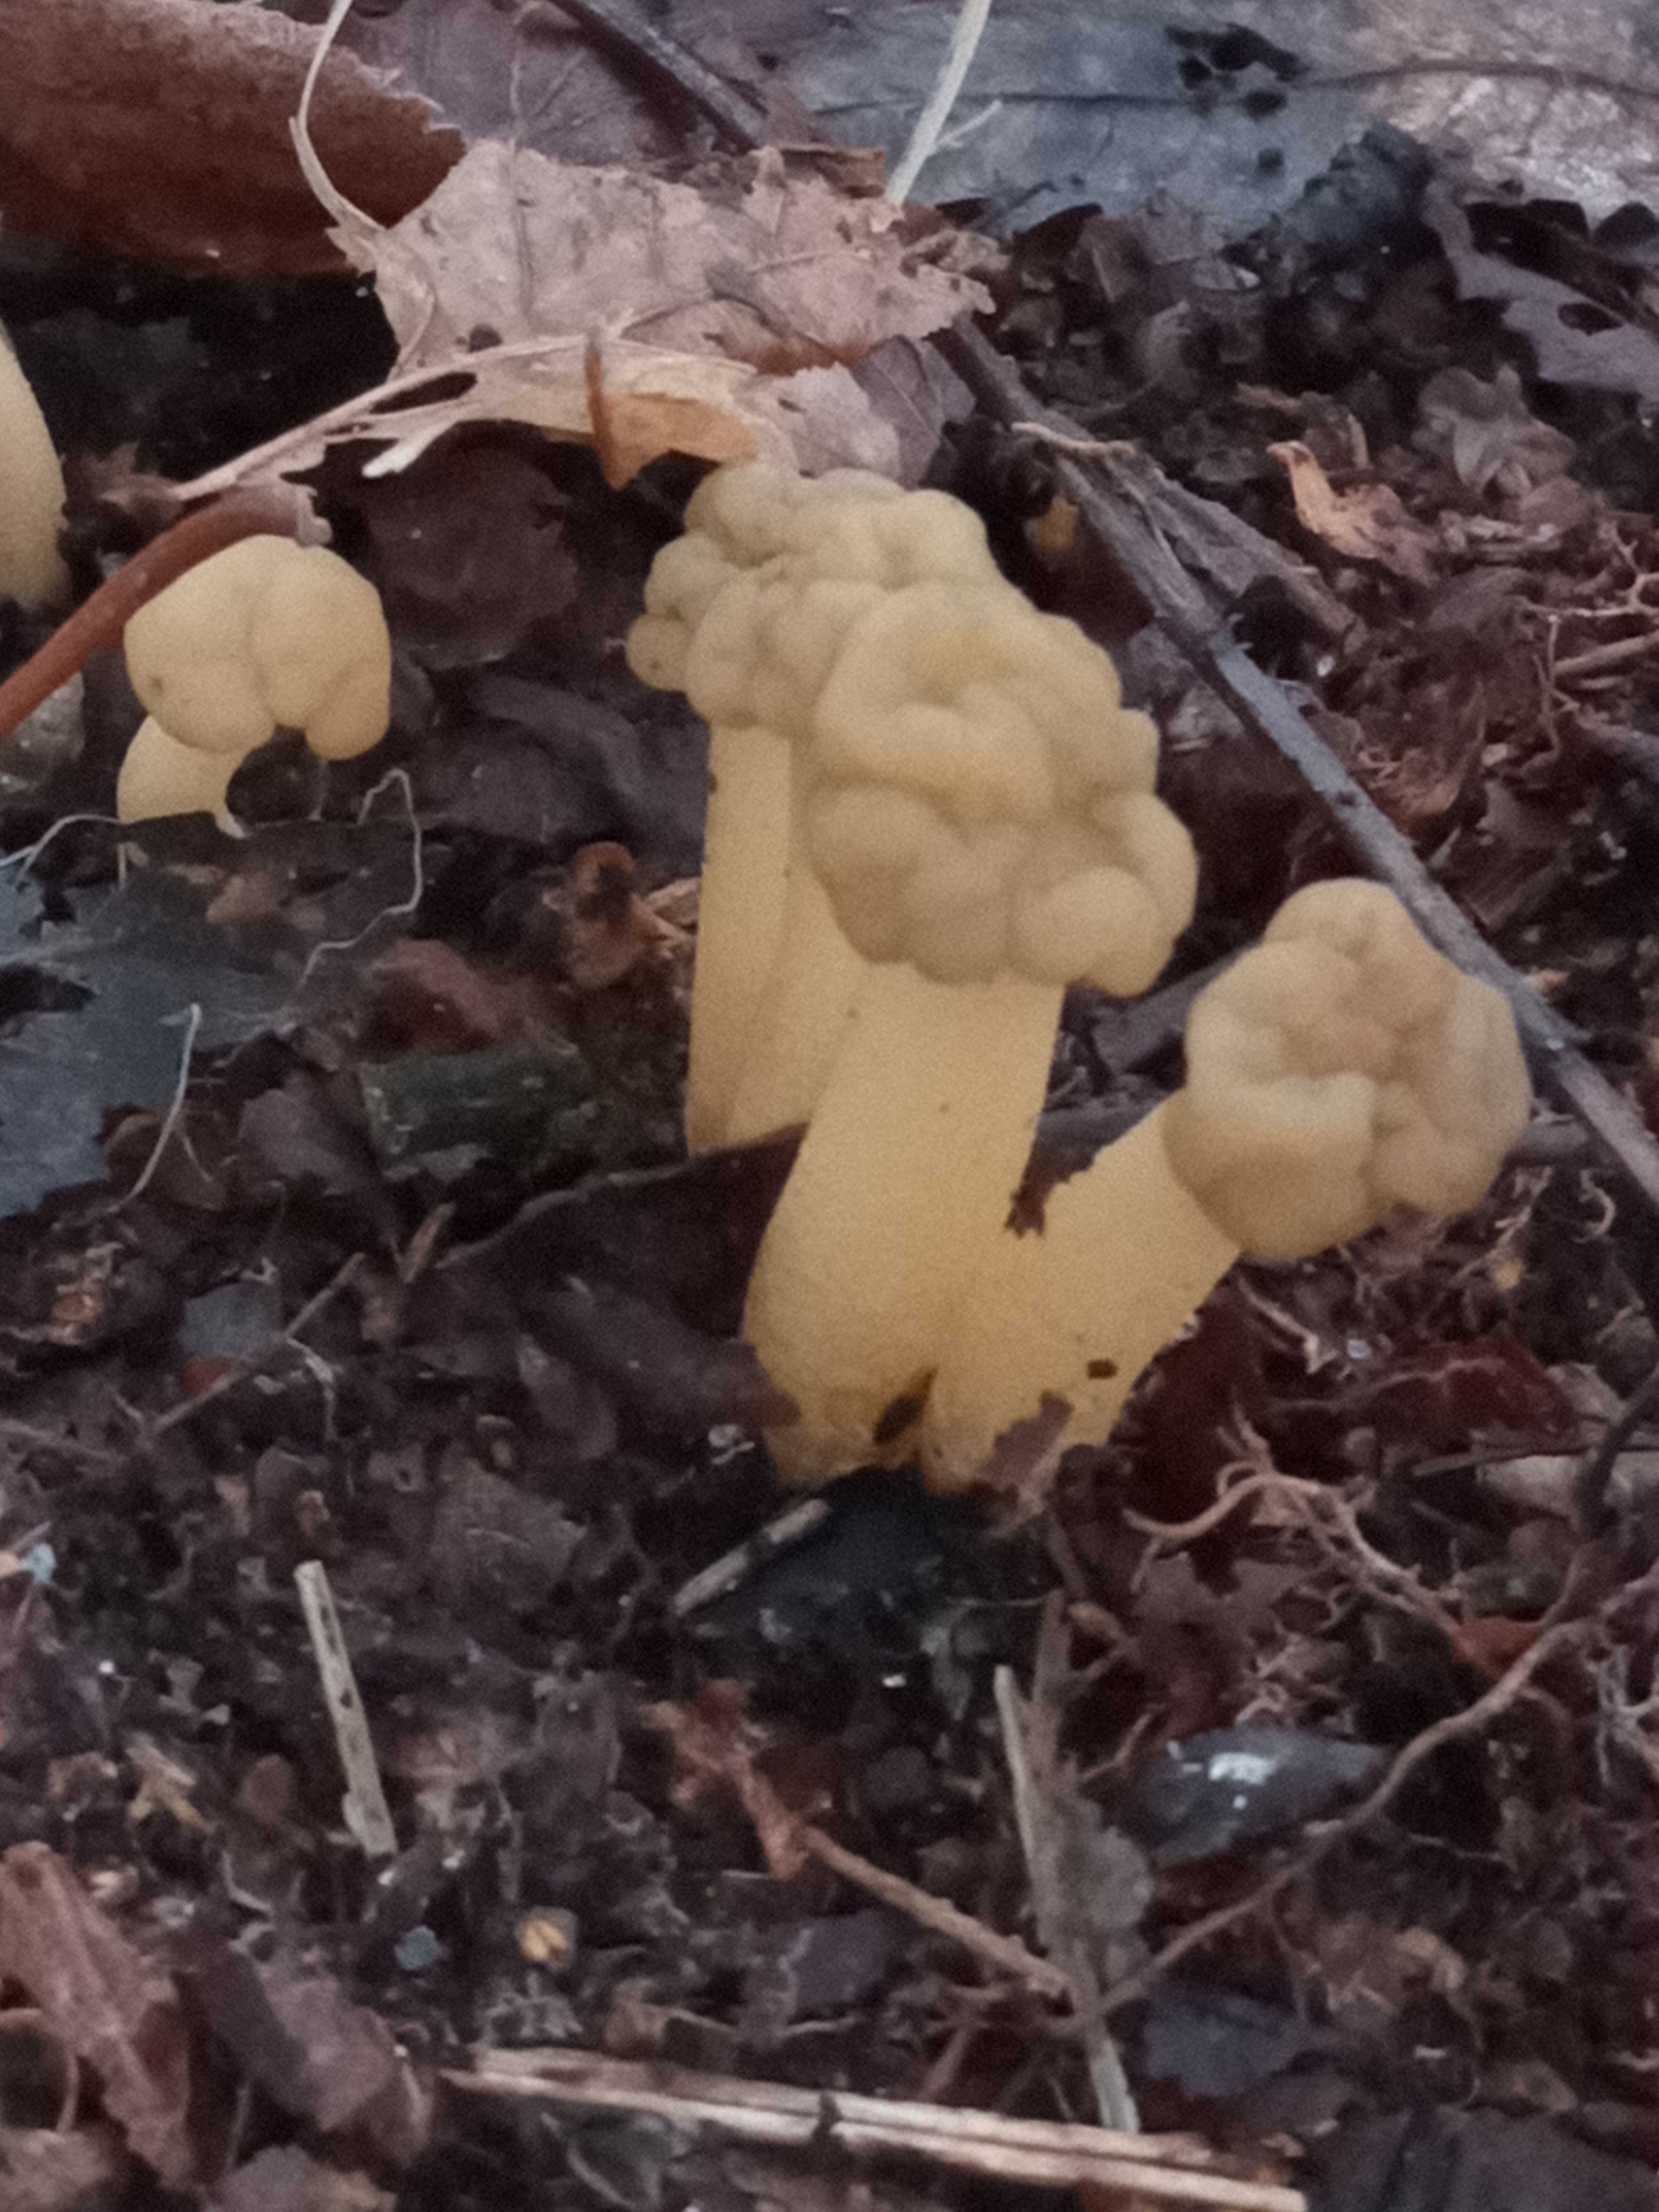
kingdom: Fungi
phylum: Ascomycota
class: Leotiomycetes
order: Leotiales
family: Leotiaceae
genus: Leotia
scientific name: Leotia lubrica
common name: Ravsvamp
